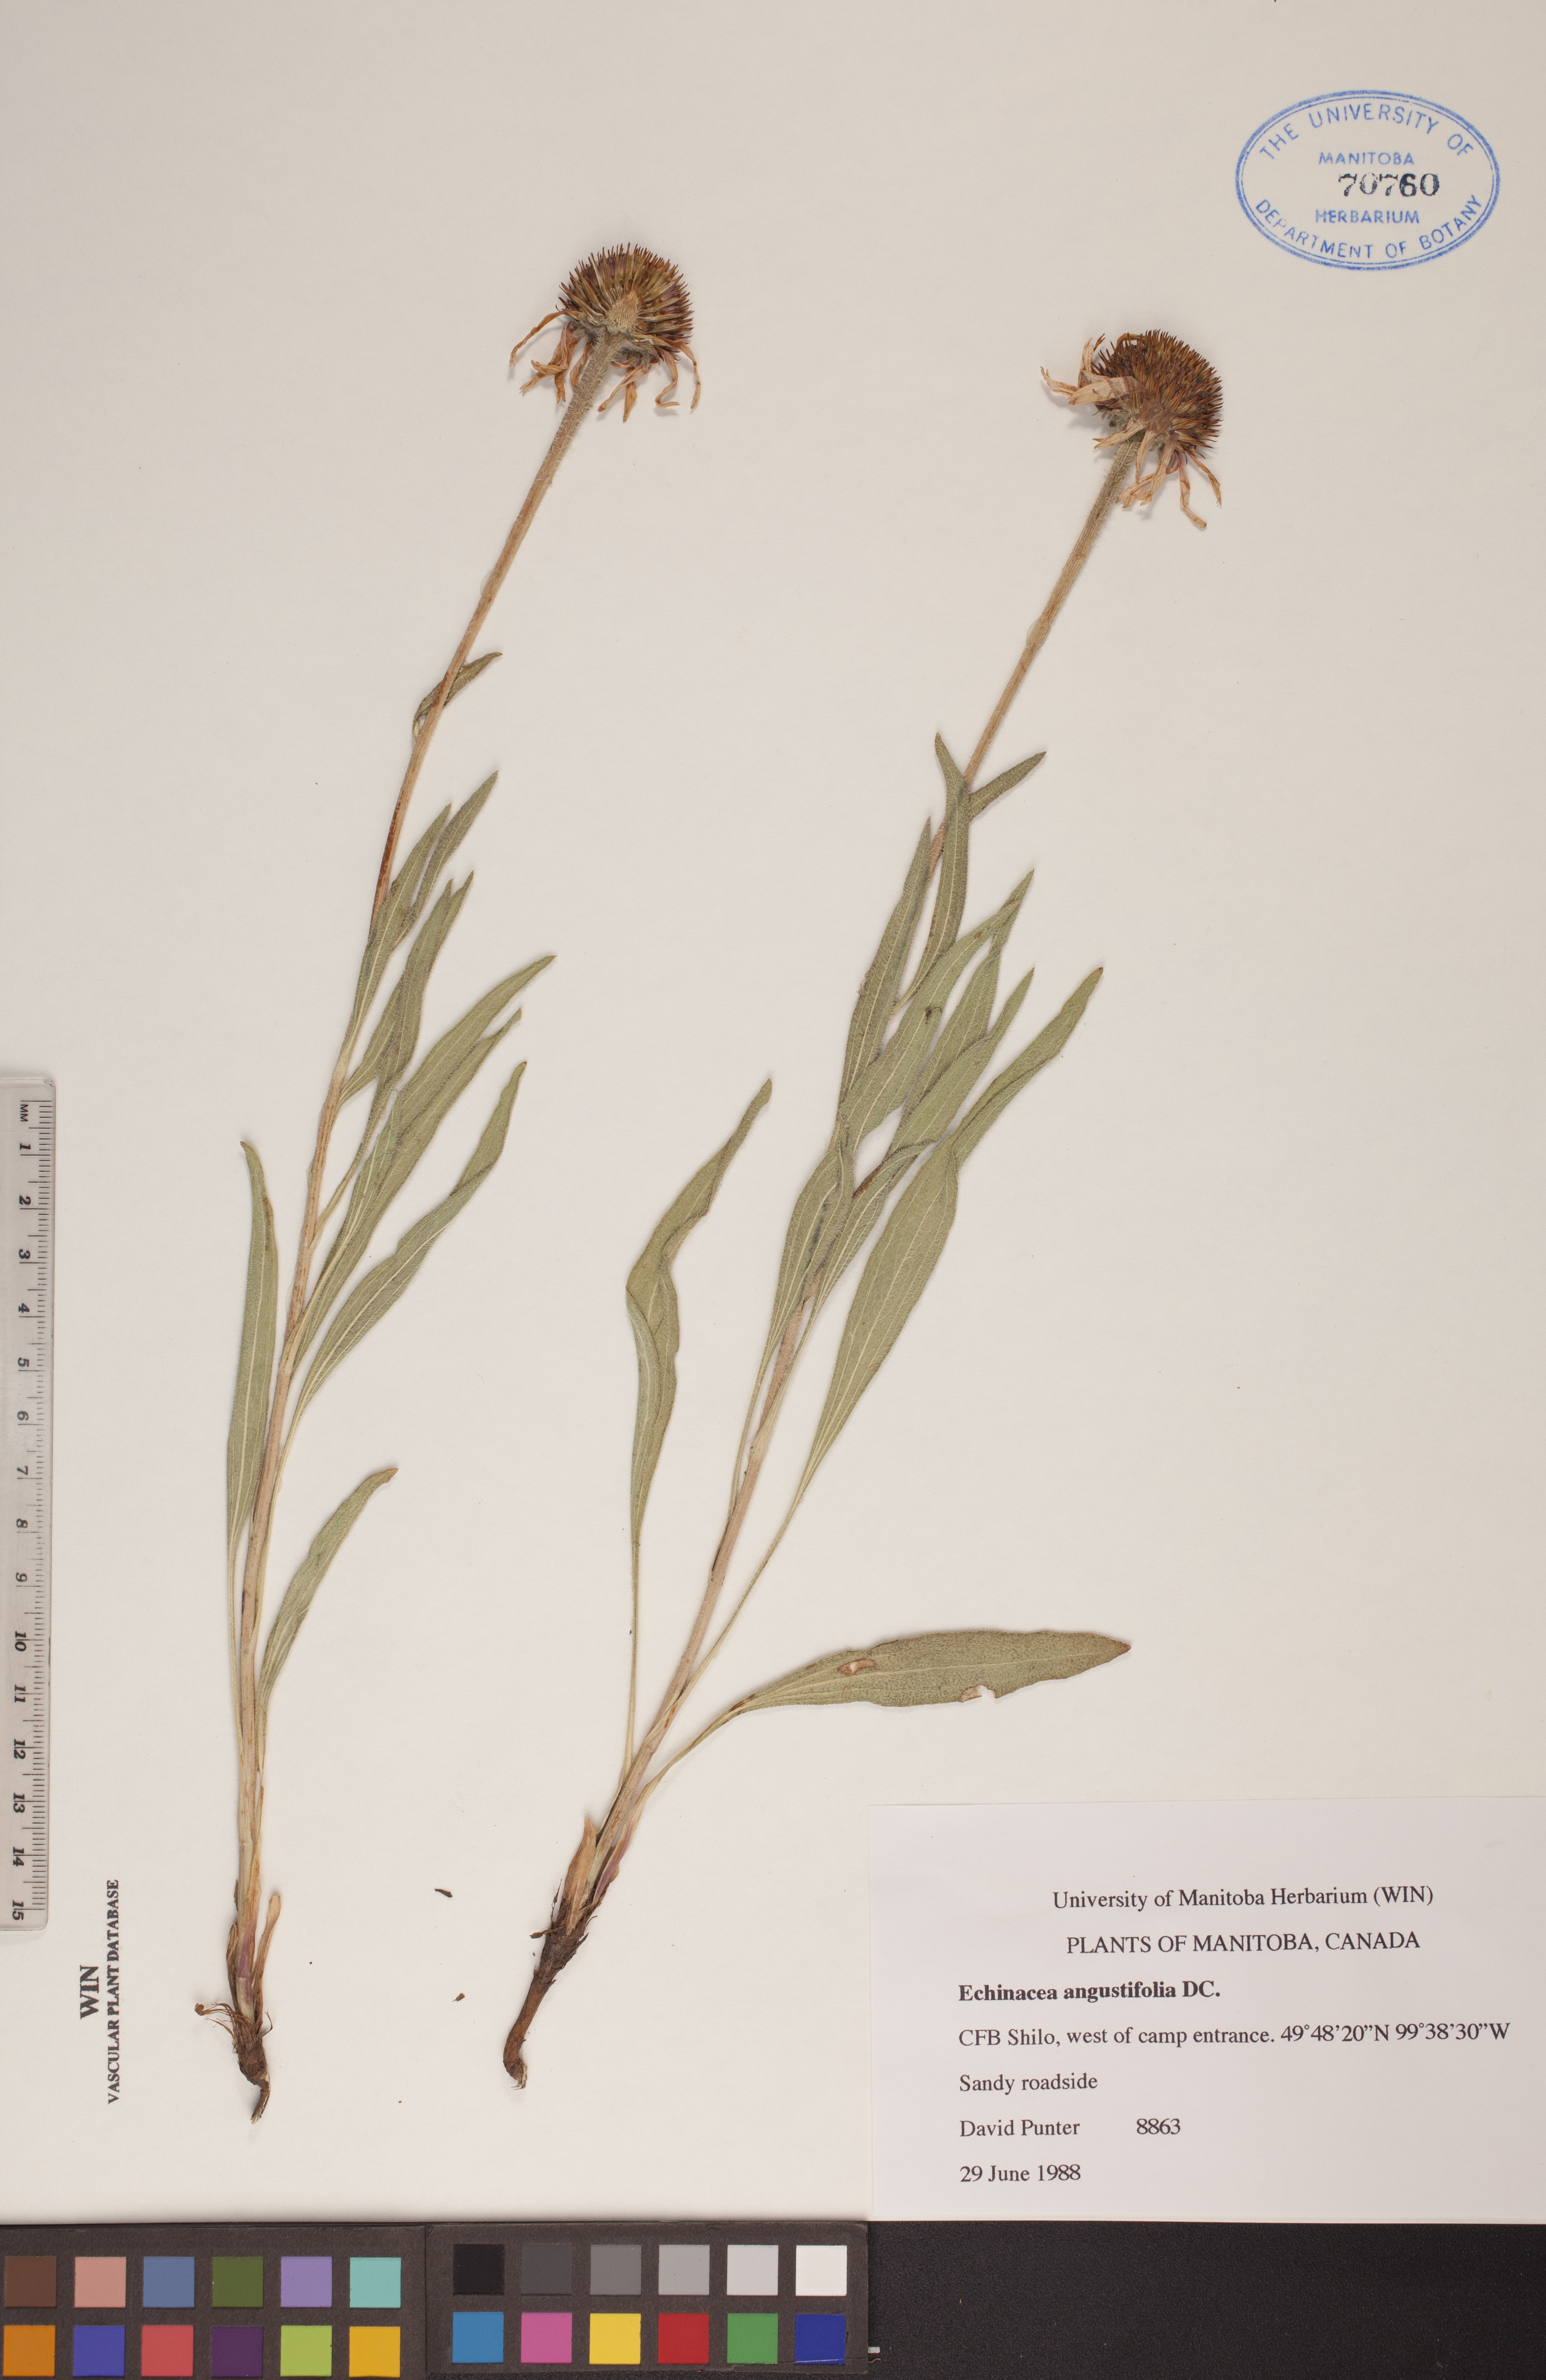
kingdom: Plantae
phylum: Tracheophyta
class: Magnoliopsida
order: Asterales
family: Asteraceae
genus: Echinacea
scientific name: Echinacea angustifolia
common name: Black-sampson echinacea
